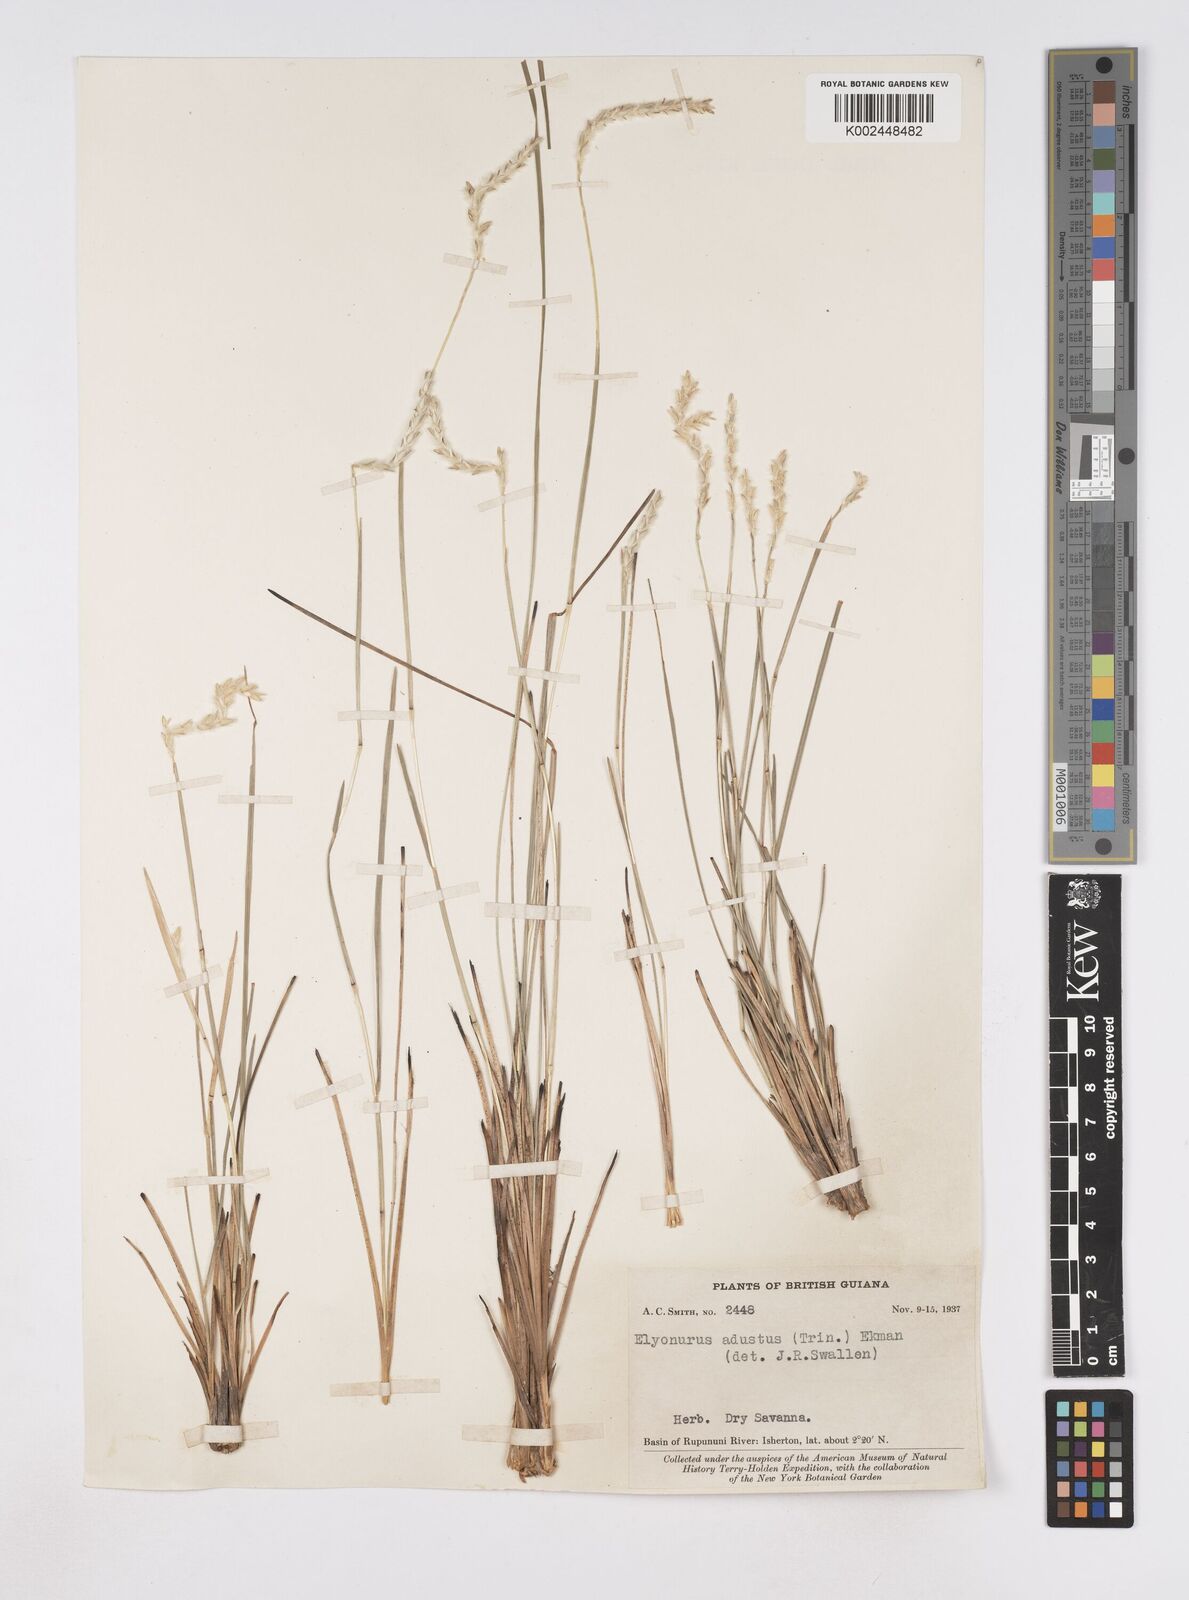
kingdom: Plantae
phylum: Tracheophyta
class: Liliopsida
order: Poales
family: Poaceae
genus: Elionurus
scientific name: Elionurus planifolius
